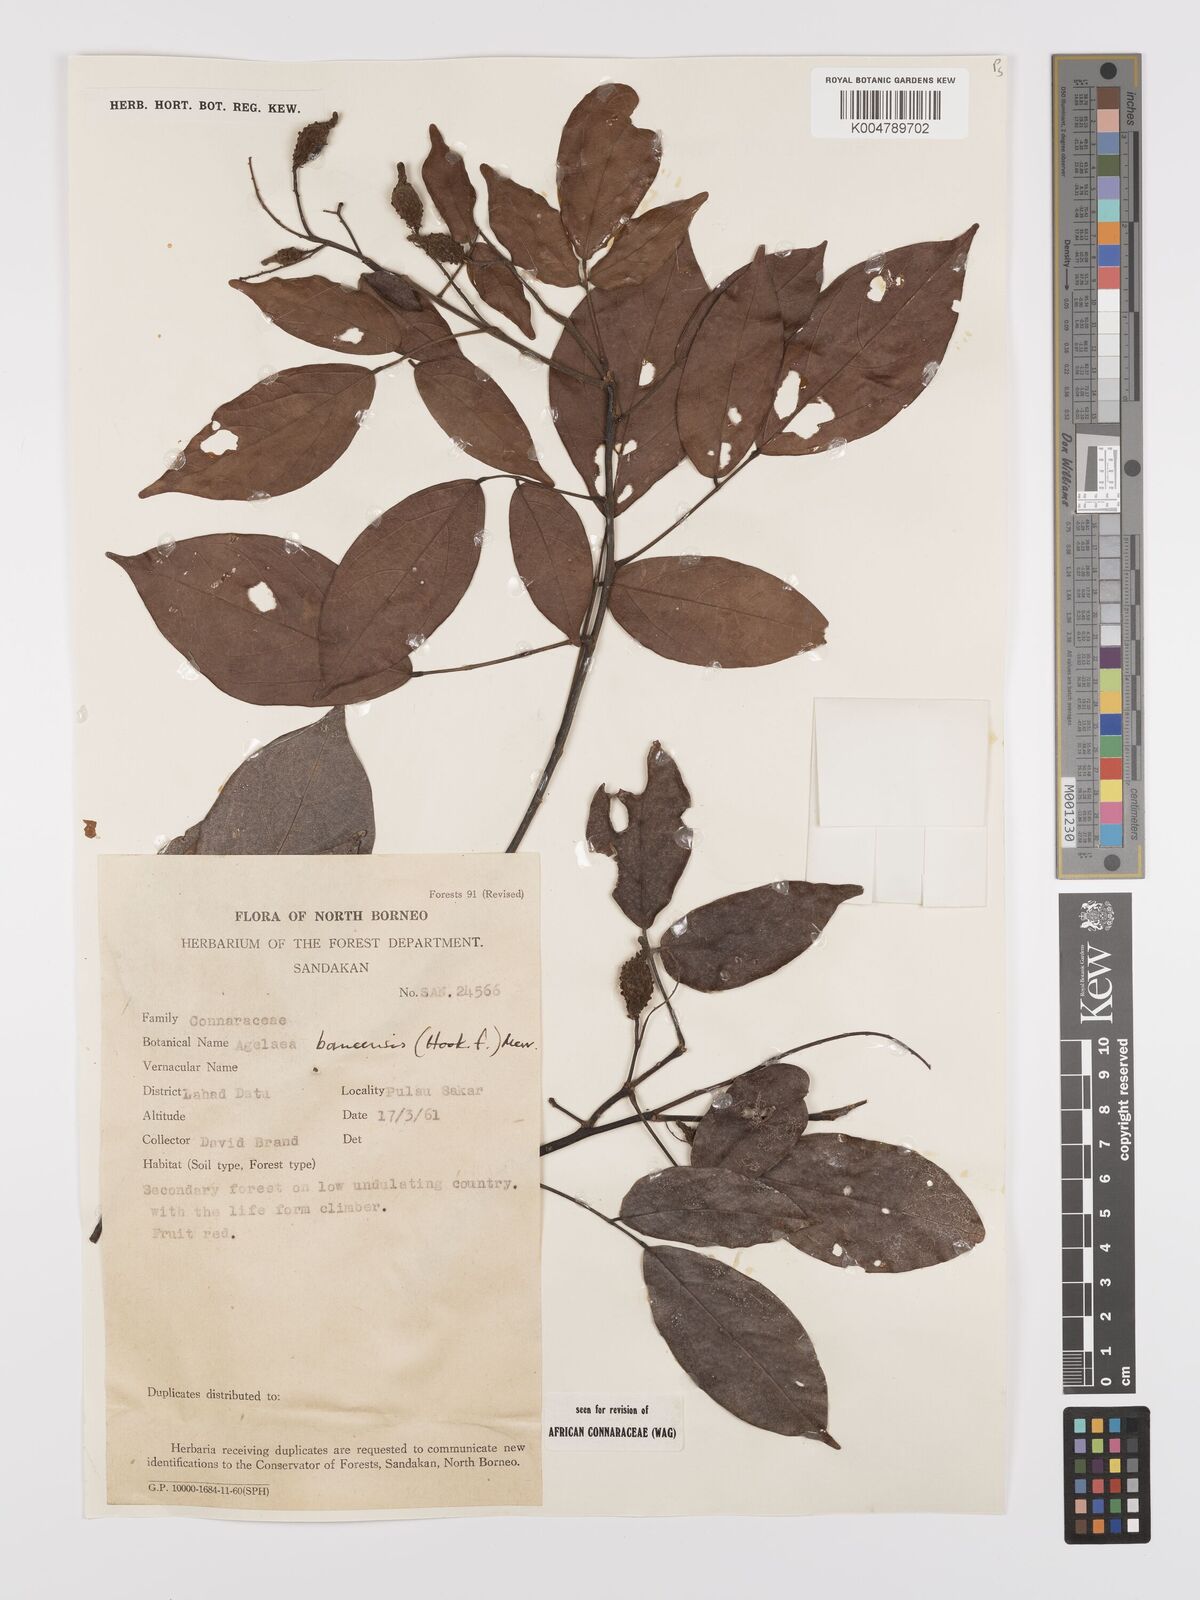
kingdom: Plantae
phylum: Tracheophyta
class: Magnoliopsida
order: Oxalidales
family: Connaraceae
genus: Agelaea
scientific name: Agelaea borneensis
